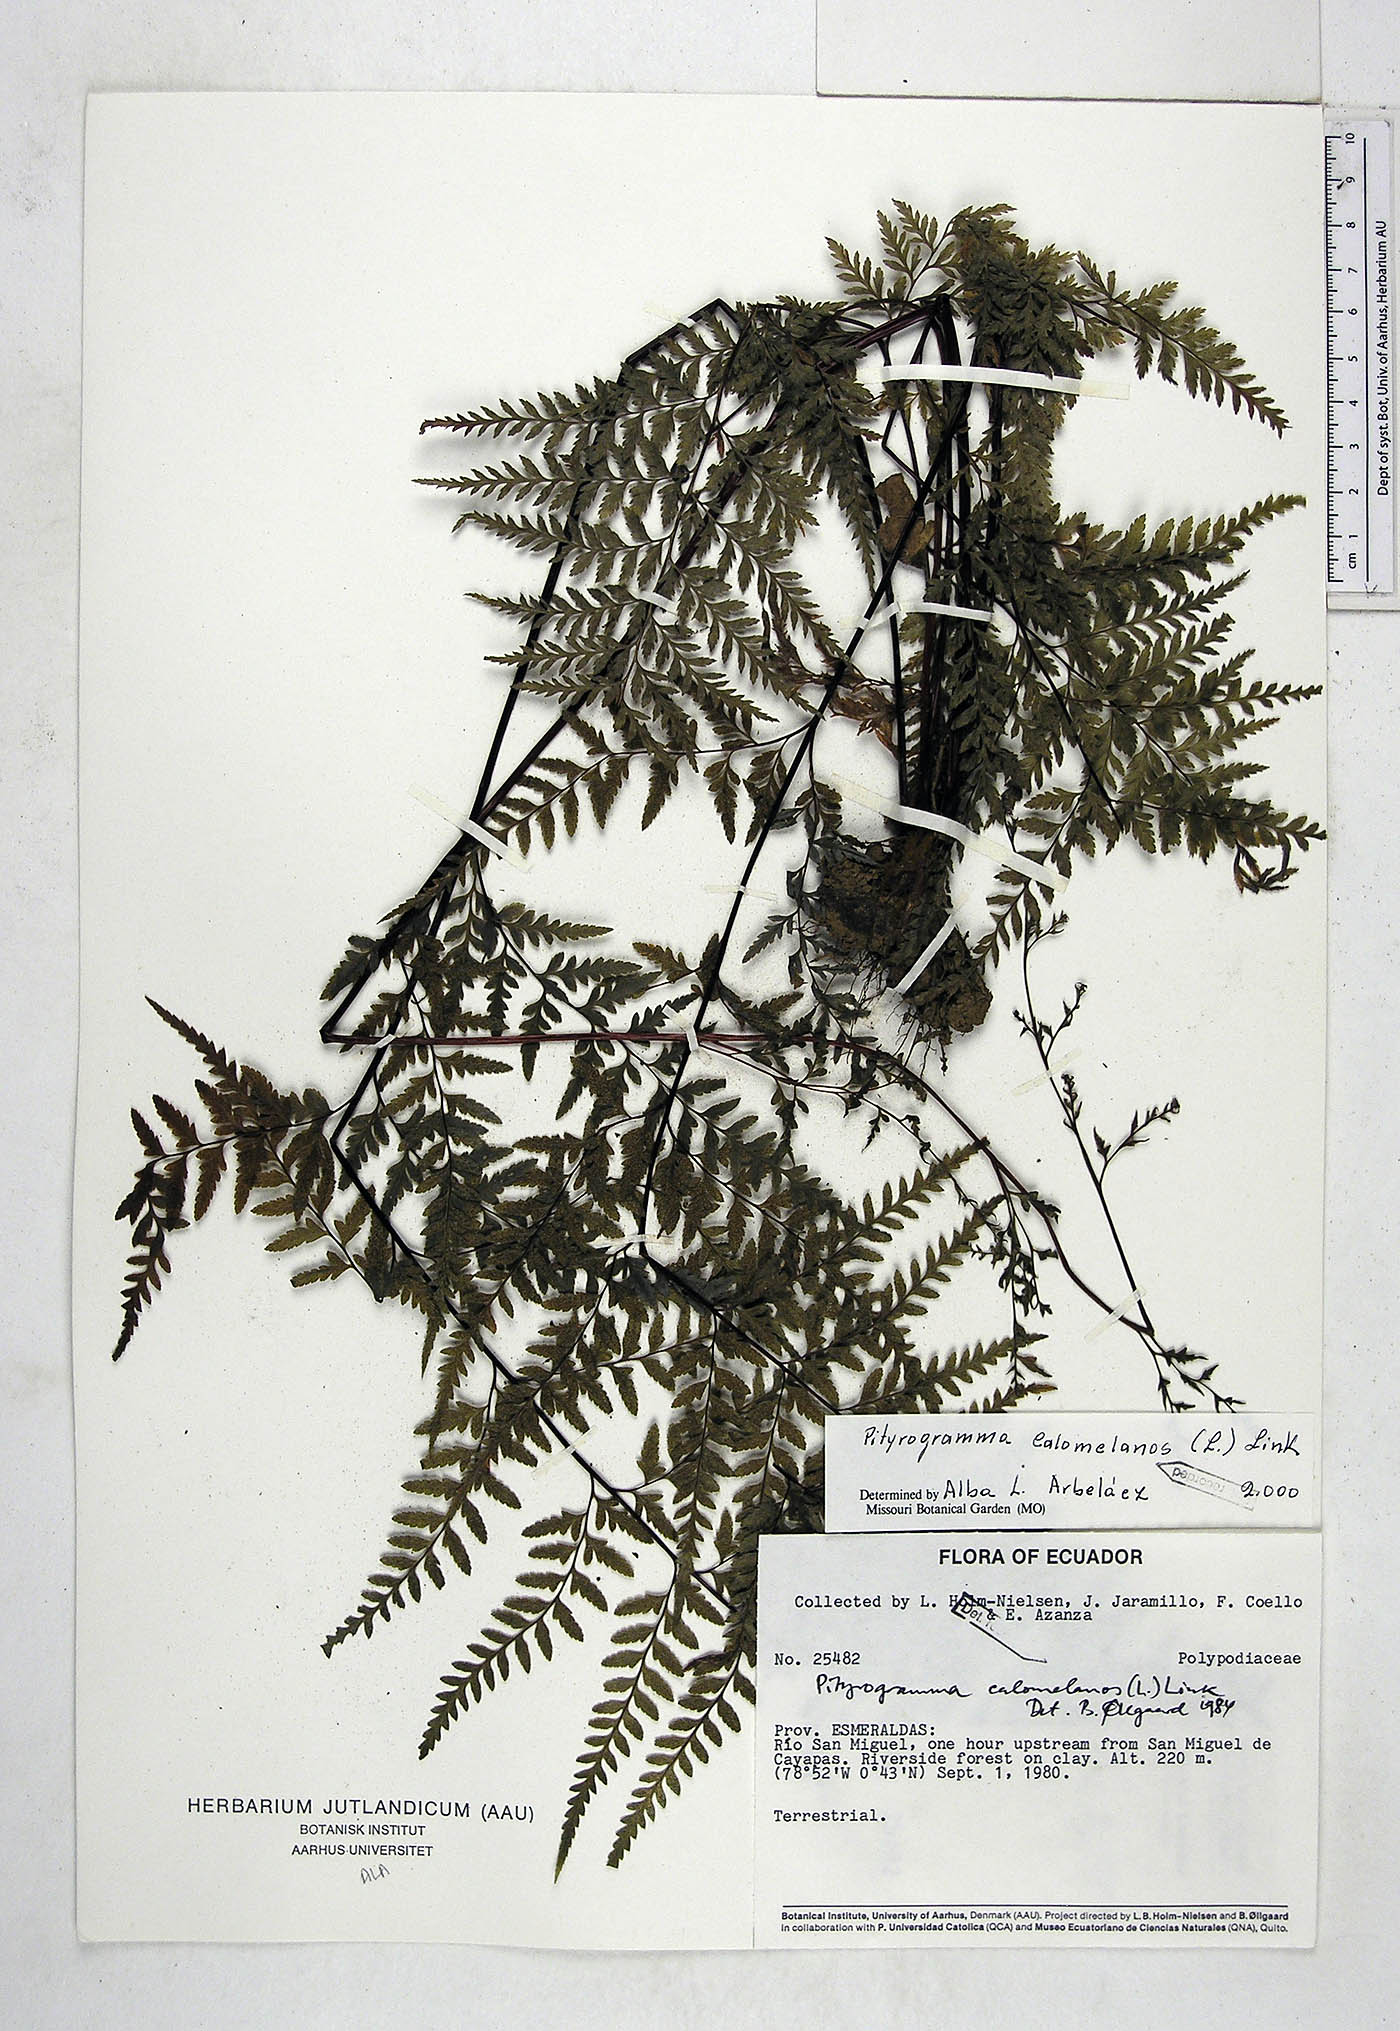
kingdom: Plantae
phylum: Tracheophyta
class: Polypodiopsida
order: Polypodiales
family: Pteridaceae
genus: Pityrogramma
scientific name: Pityrogramma calomelanos
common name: Dixie silverback fern
